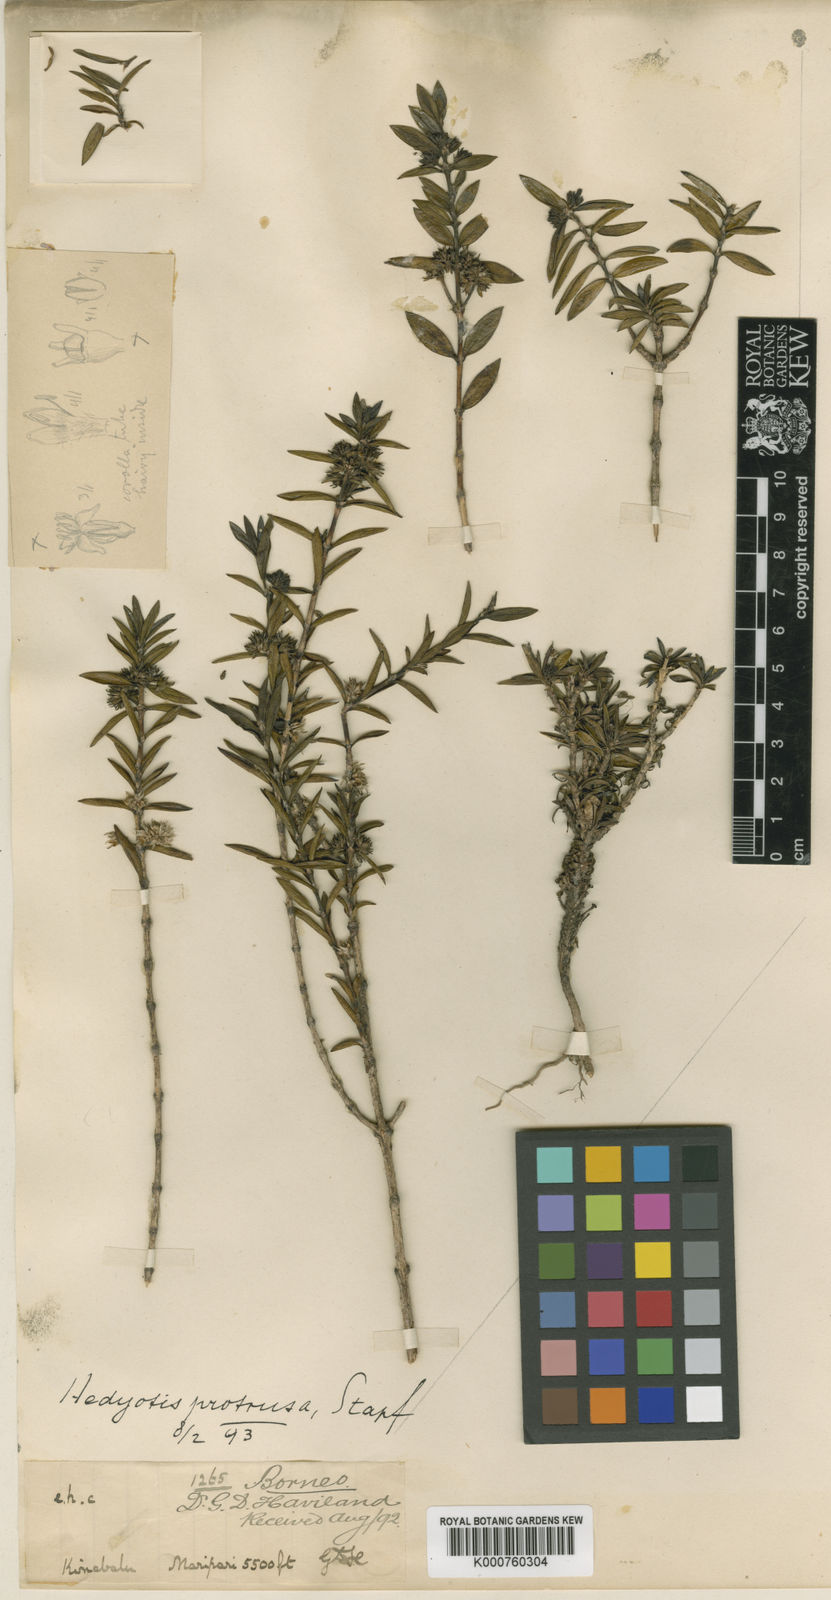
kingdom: Plantae
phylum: Tracheophyta
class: Magnoliopsida
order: Gentianales
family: Rubiaceae
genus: Hedyotis
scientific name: Hedyotis protrusa
